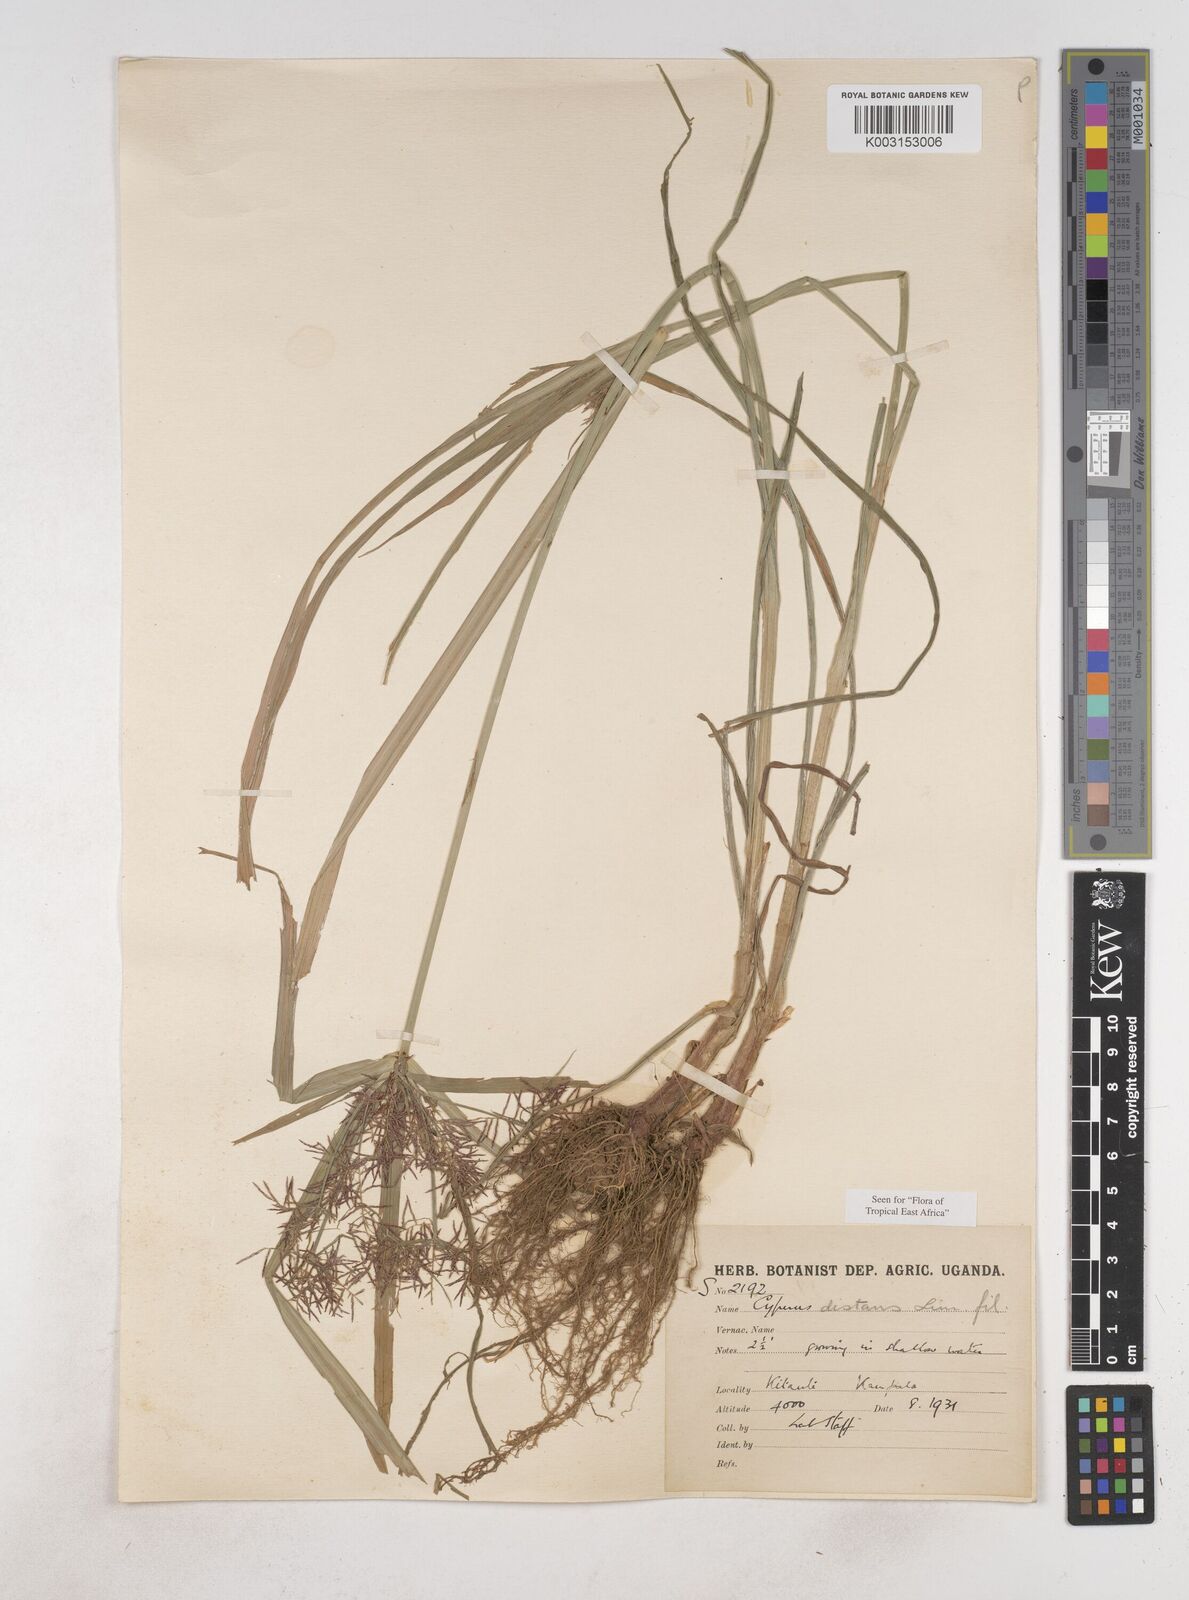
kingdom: Plantae
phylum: Tracheophyta
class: Liliopsida
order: Poales
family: Cyperaceae
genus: Cyperus
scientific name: Cyperus distans
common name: Slender cyperus
